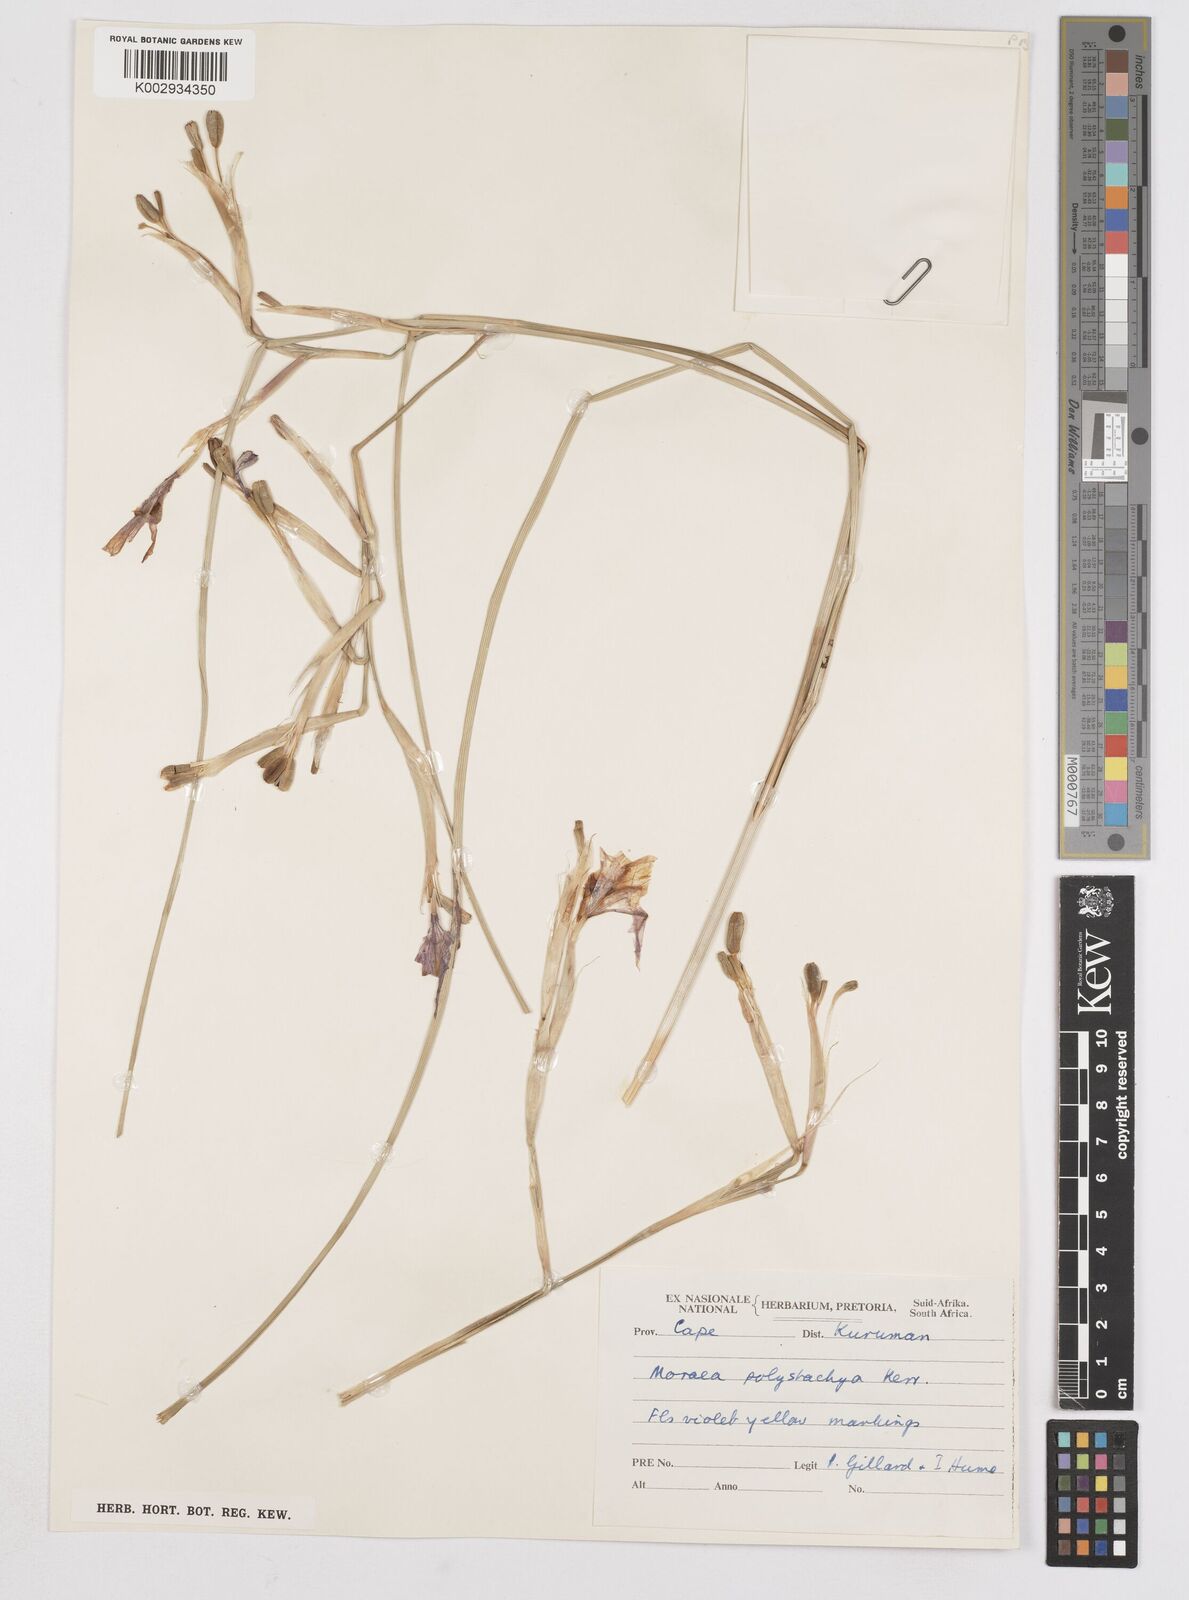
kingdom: Plantae
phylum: Tracheophyta
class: Liliopsida
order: Asparagales
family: Iridaceae
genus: Moraea
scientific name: Moraea polystachya
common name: Blue-tulip
